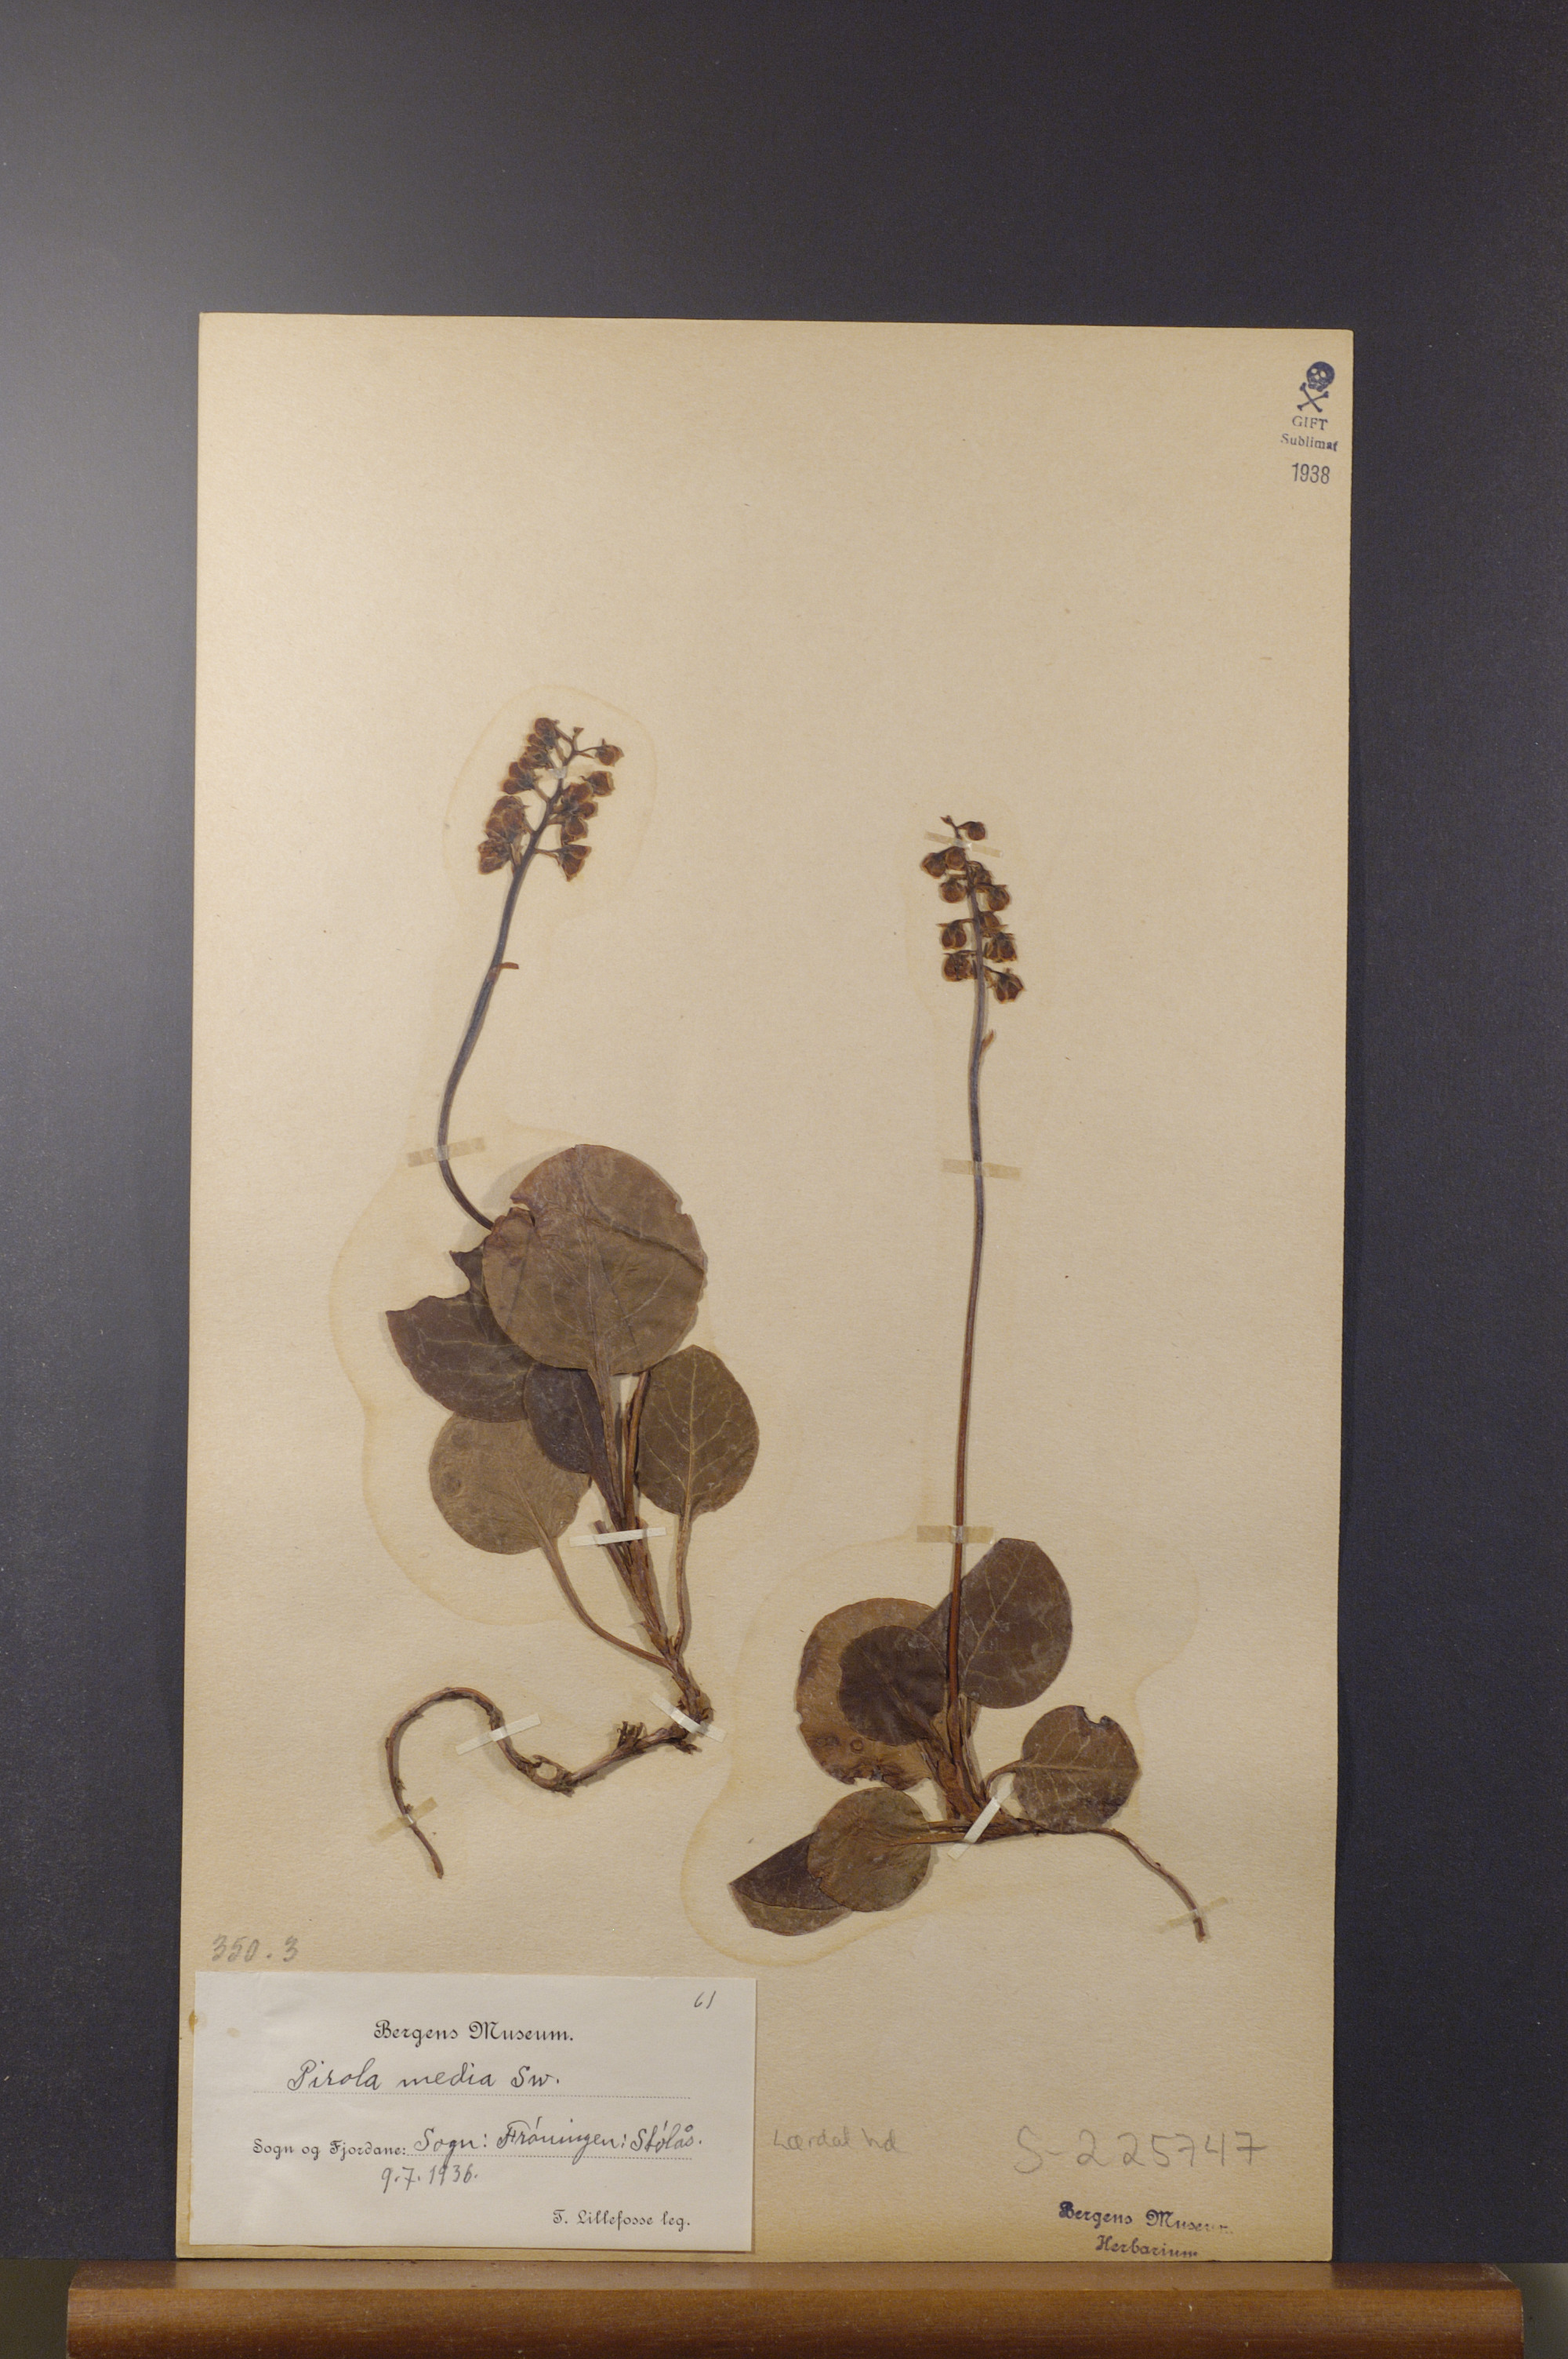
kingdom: Plantae
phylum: Tracheophyta
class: Magnoliopsida
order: Ericales
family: Ericaceae
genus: Pyrola
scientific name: Pyrola media
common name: Intermediate wintergreen
